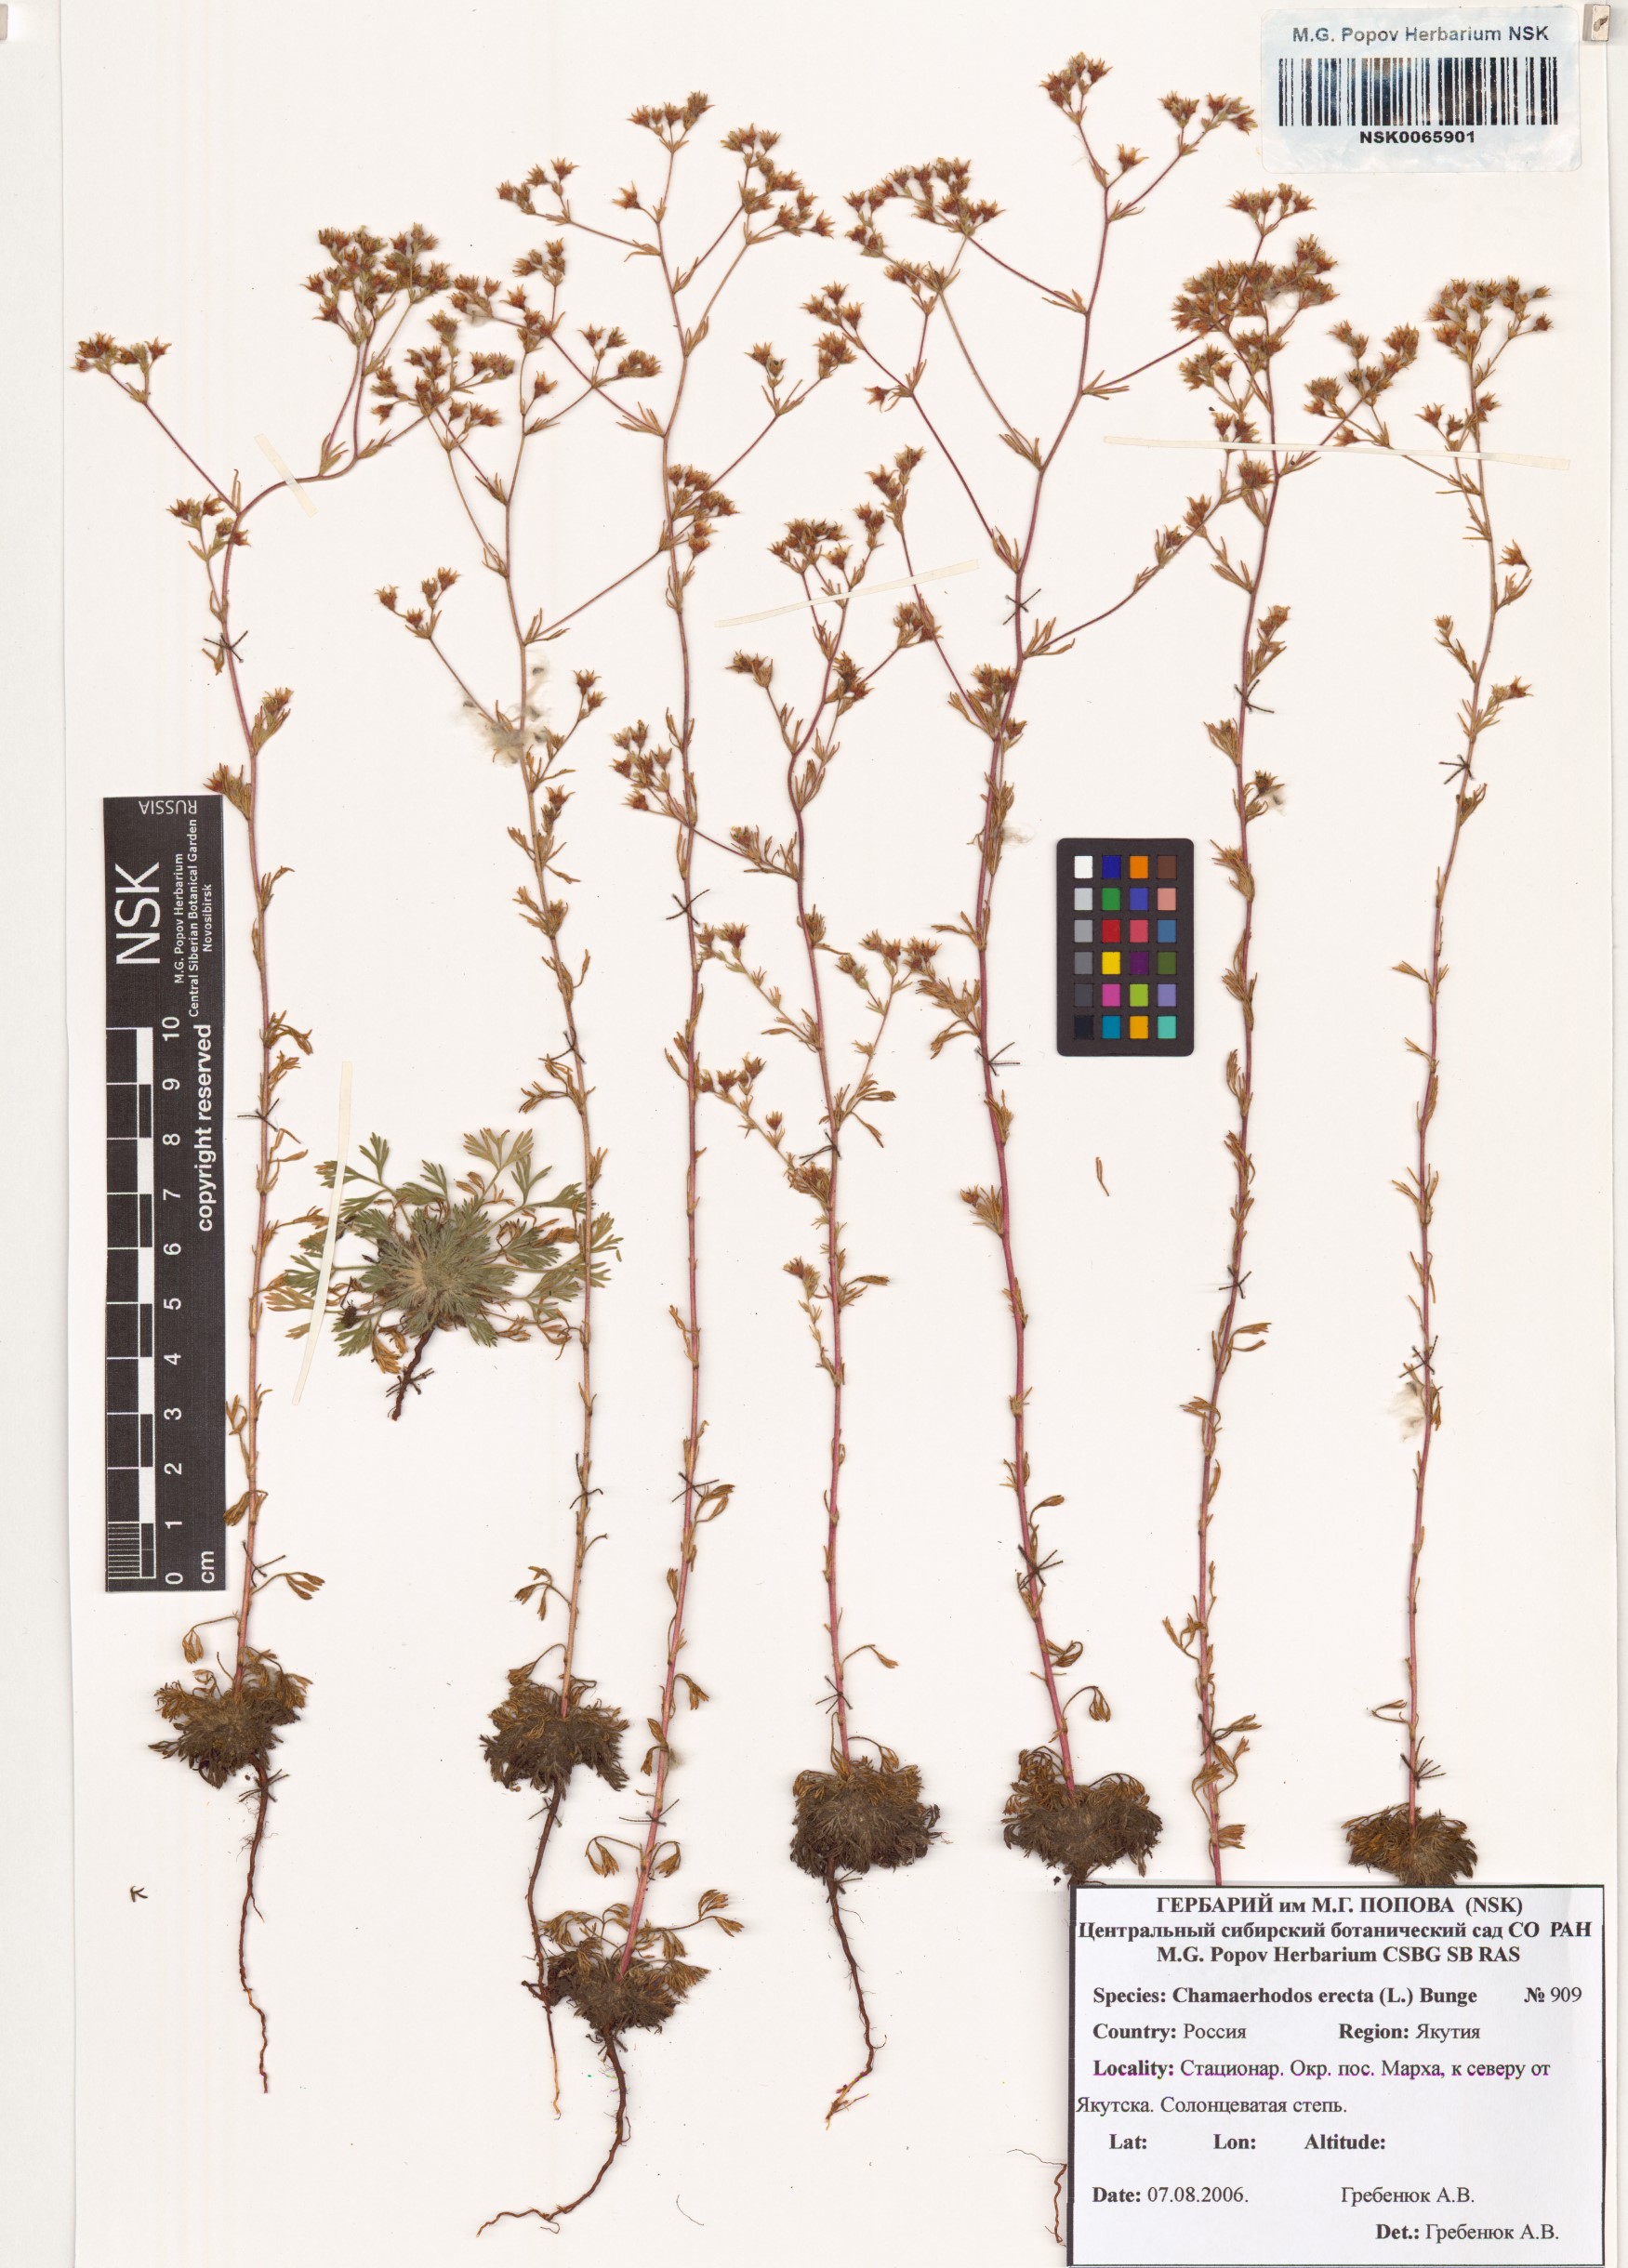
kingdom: Plantae
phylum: Tracheophyta
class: Magnoliopsida
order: Rosales
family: Rosaceae
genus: Chamaerhodos
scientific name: Chamaerhodos erecta
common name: American chamaerhodos
